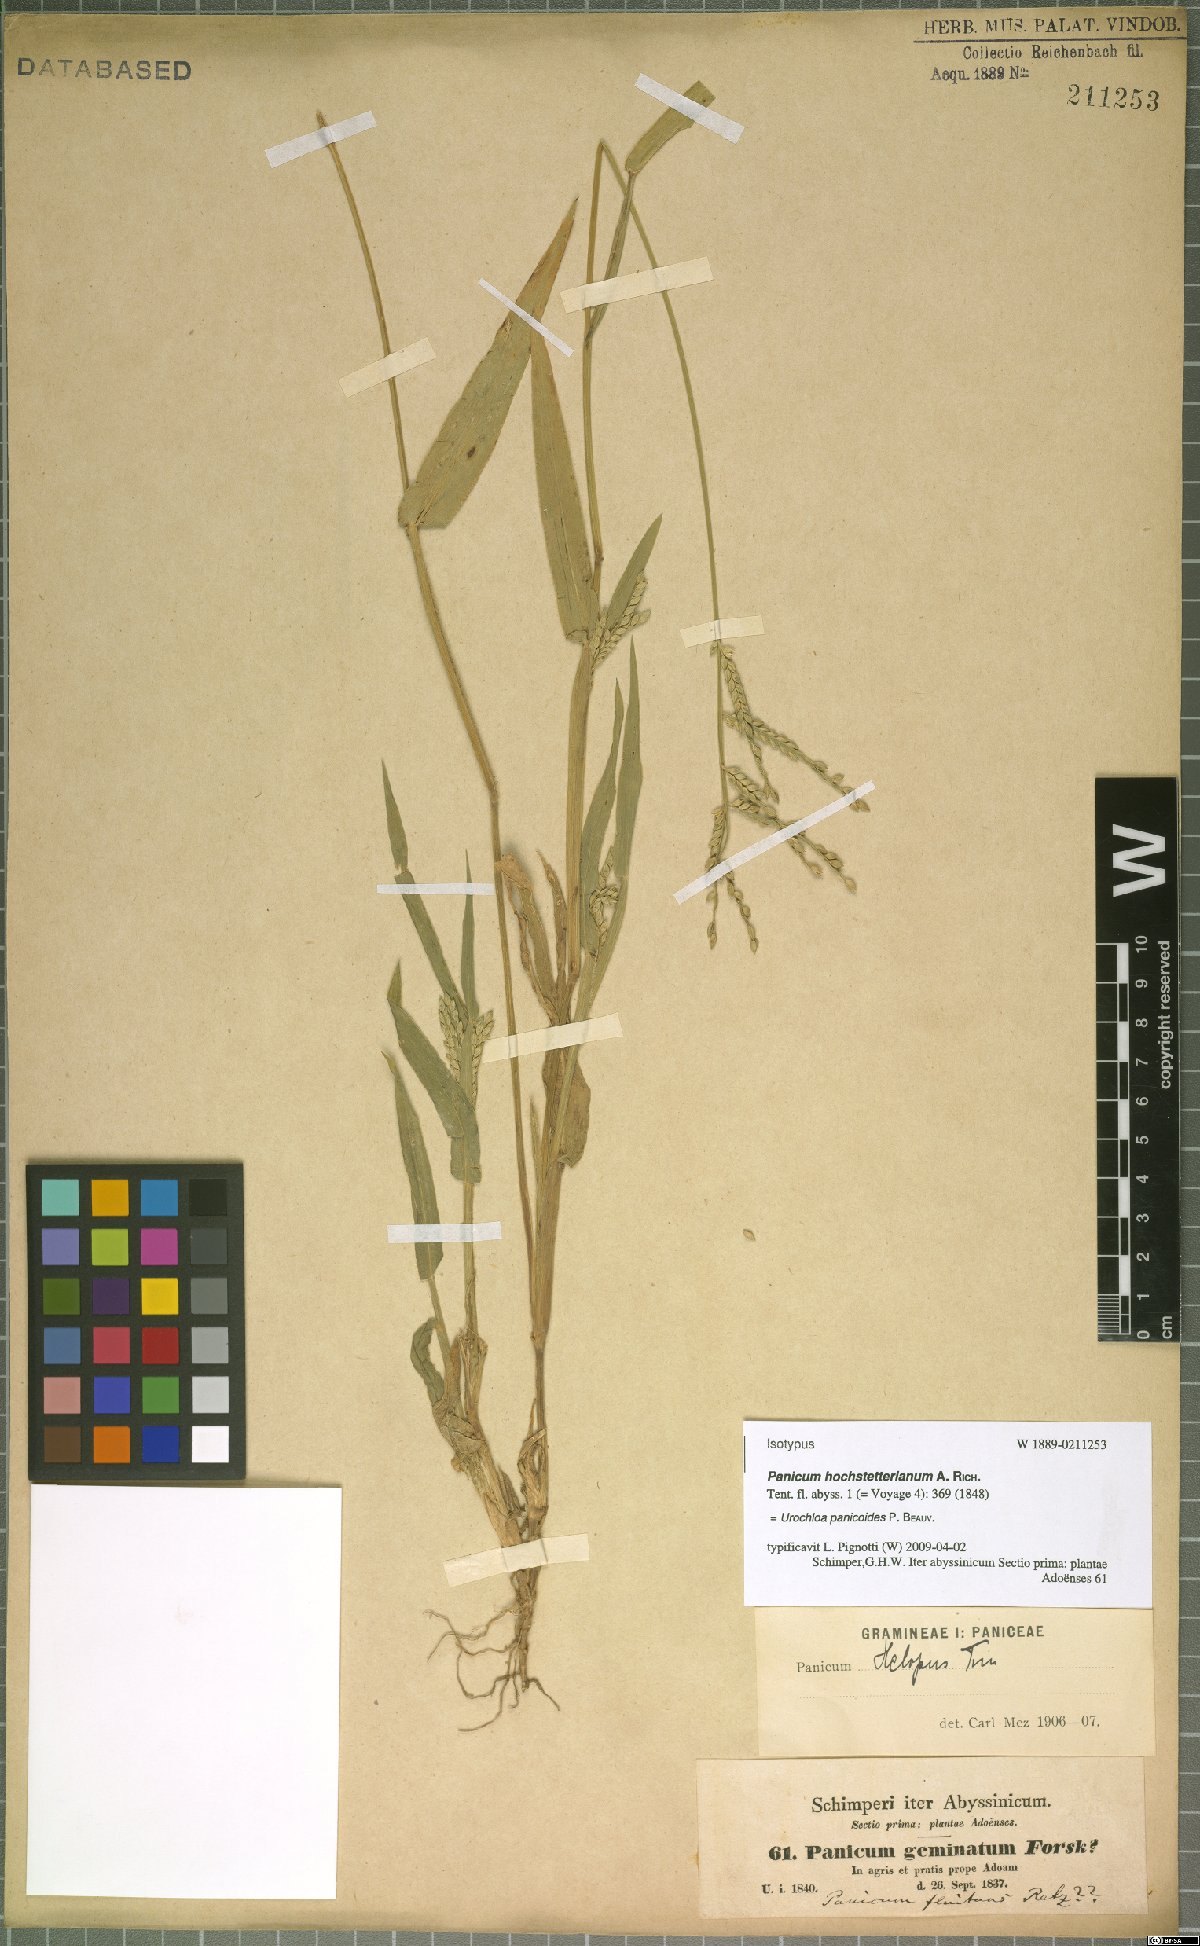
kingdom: Plantae
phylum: Tracheophyta
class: Liliopsida
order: Poales
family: Poaceae
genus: Urochloa
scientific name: Urochloa panicoides
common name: Sharp-flowered signal-grass
